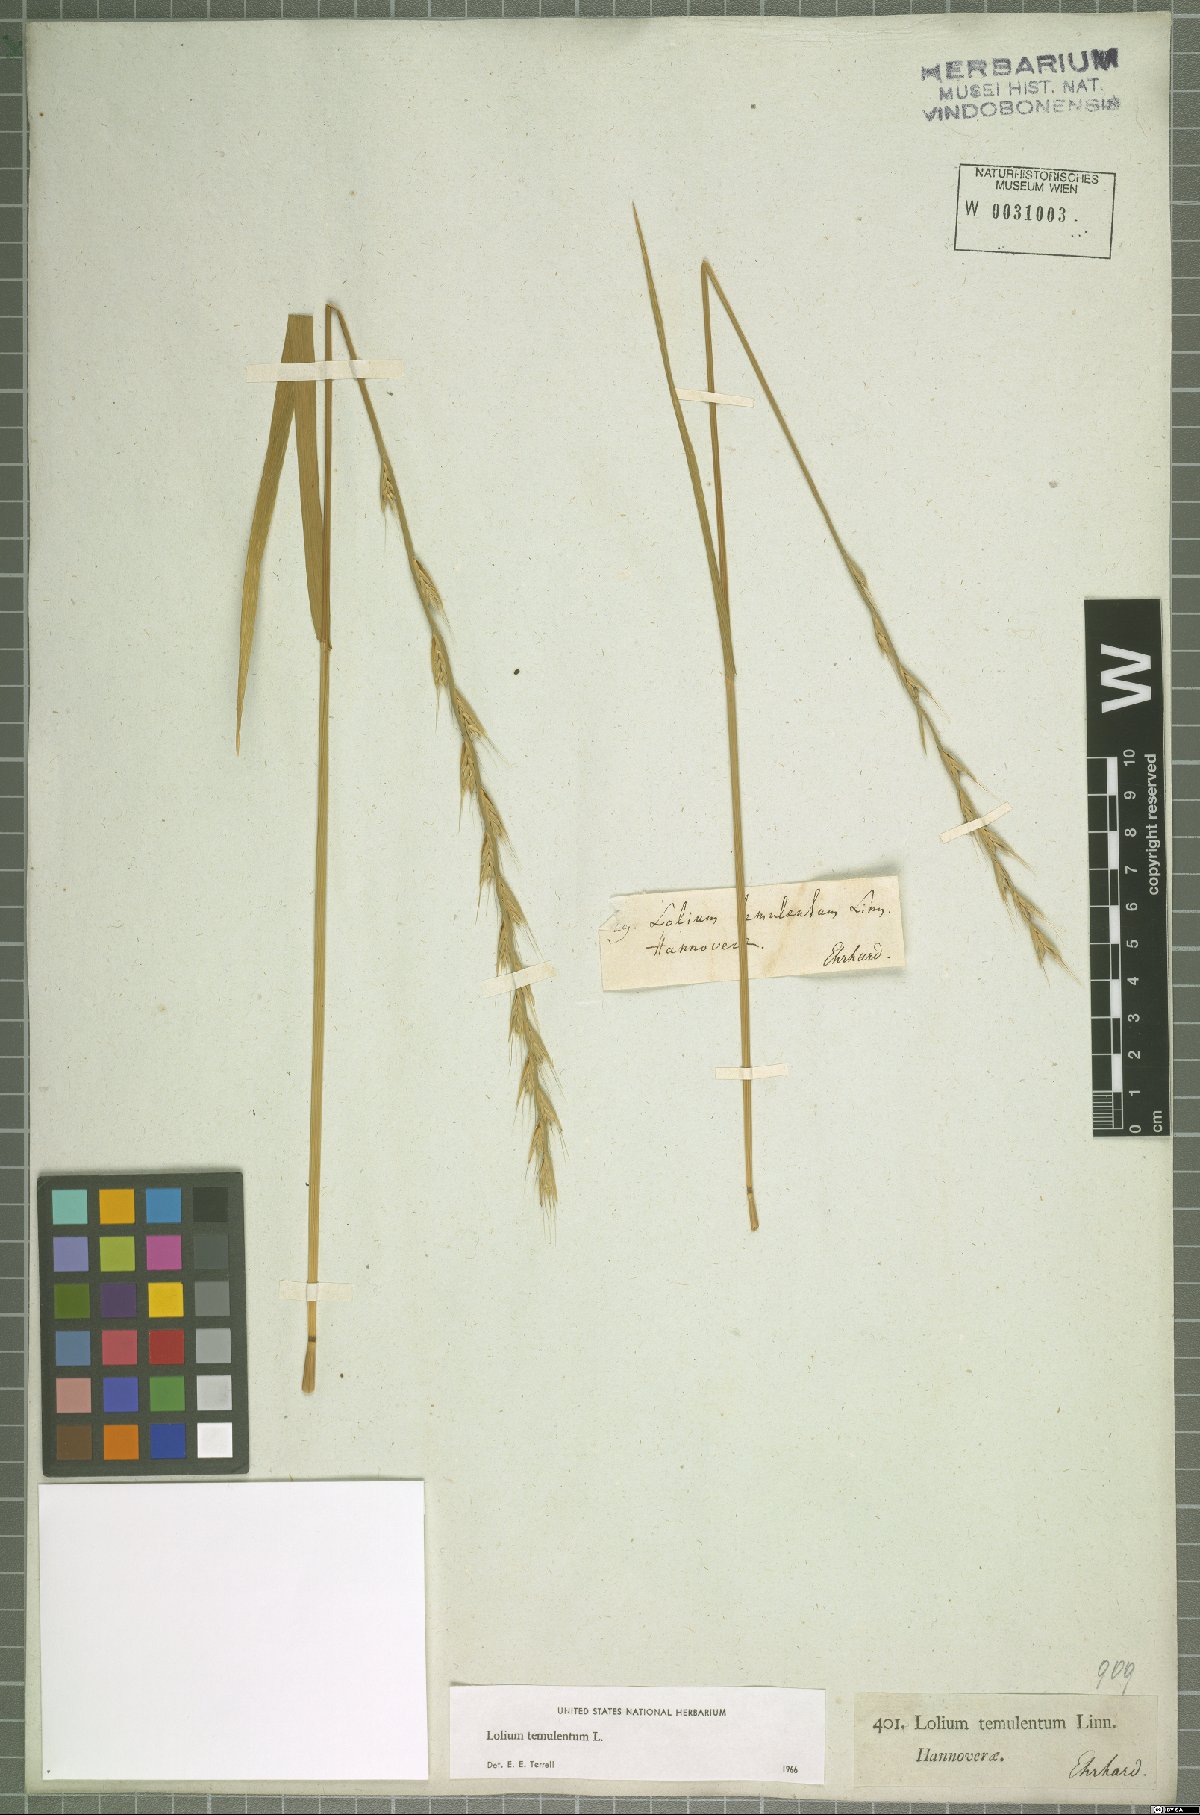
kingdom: Plantae
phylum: Tracheophyta
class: Liliopsida
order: Poales
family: Poaceae
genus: Lolium
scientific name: Lolium temulentum
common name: Darnel
